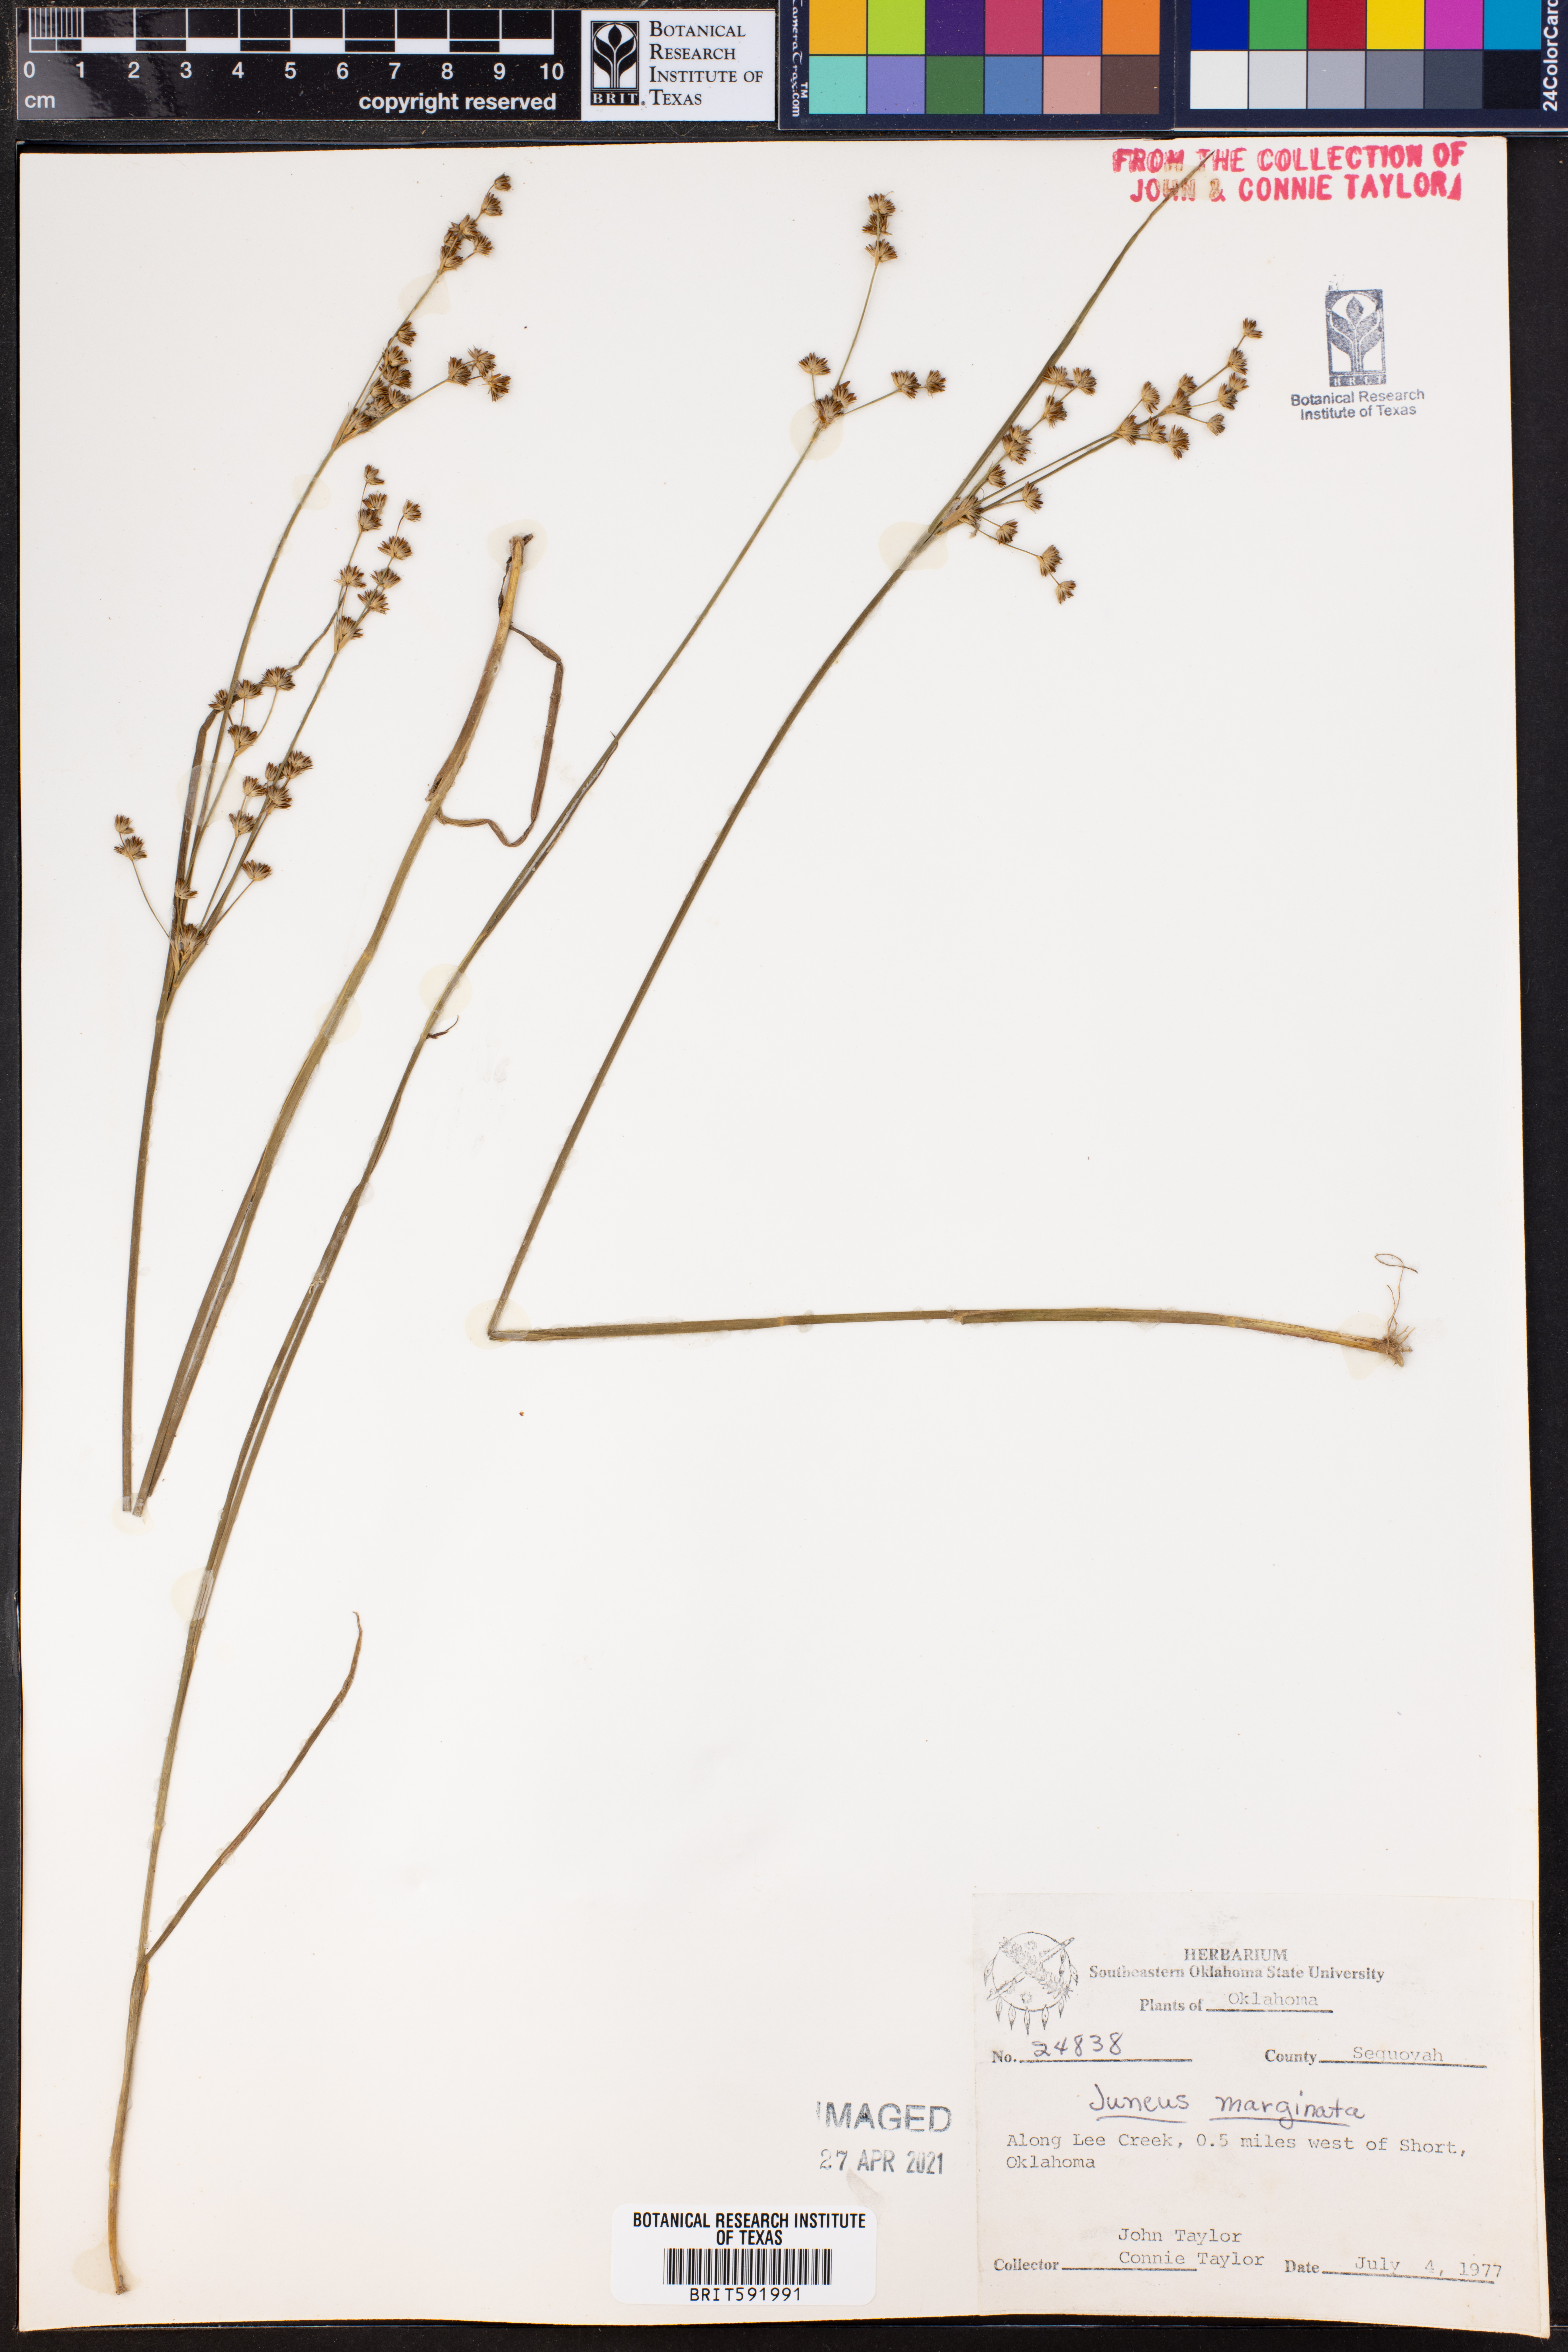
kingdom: Plantae
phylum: Tracheophyta
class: Liliopsida
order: Poales
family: Juncaceae
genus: Juncus
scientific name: Juncus marginatus
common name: Grass-leaf rush
